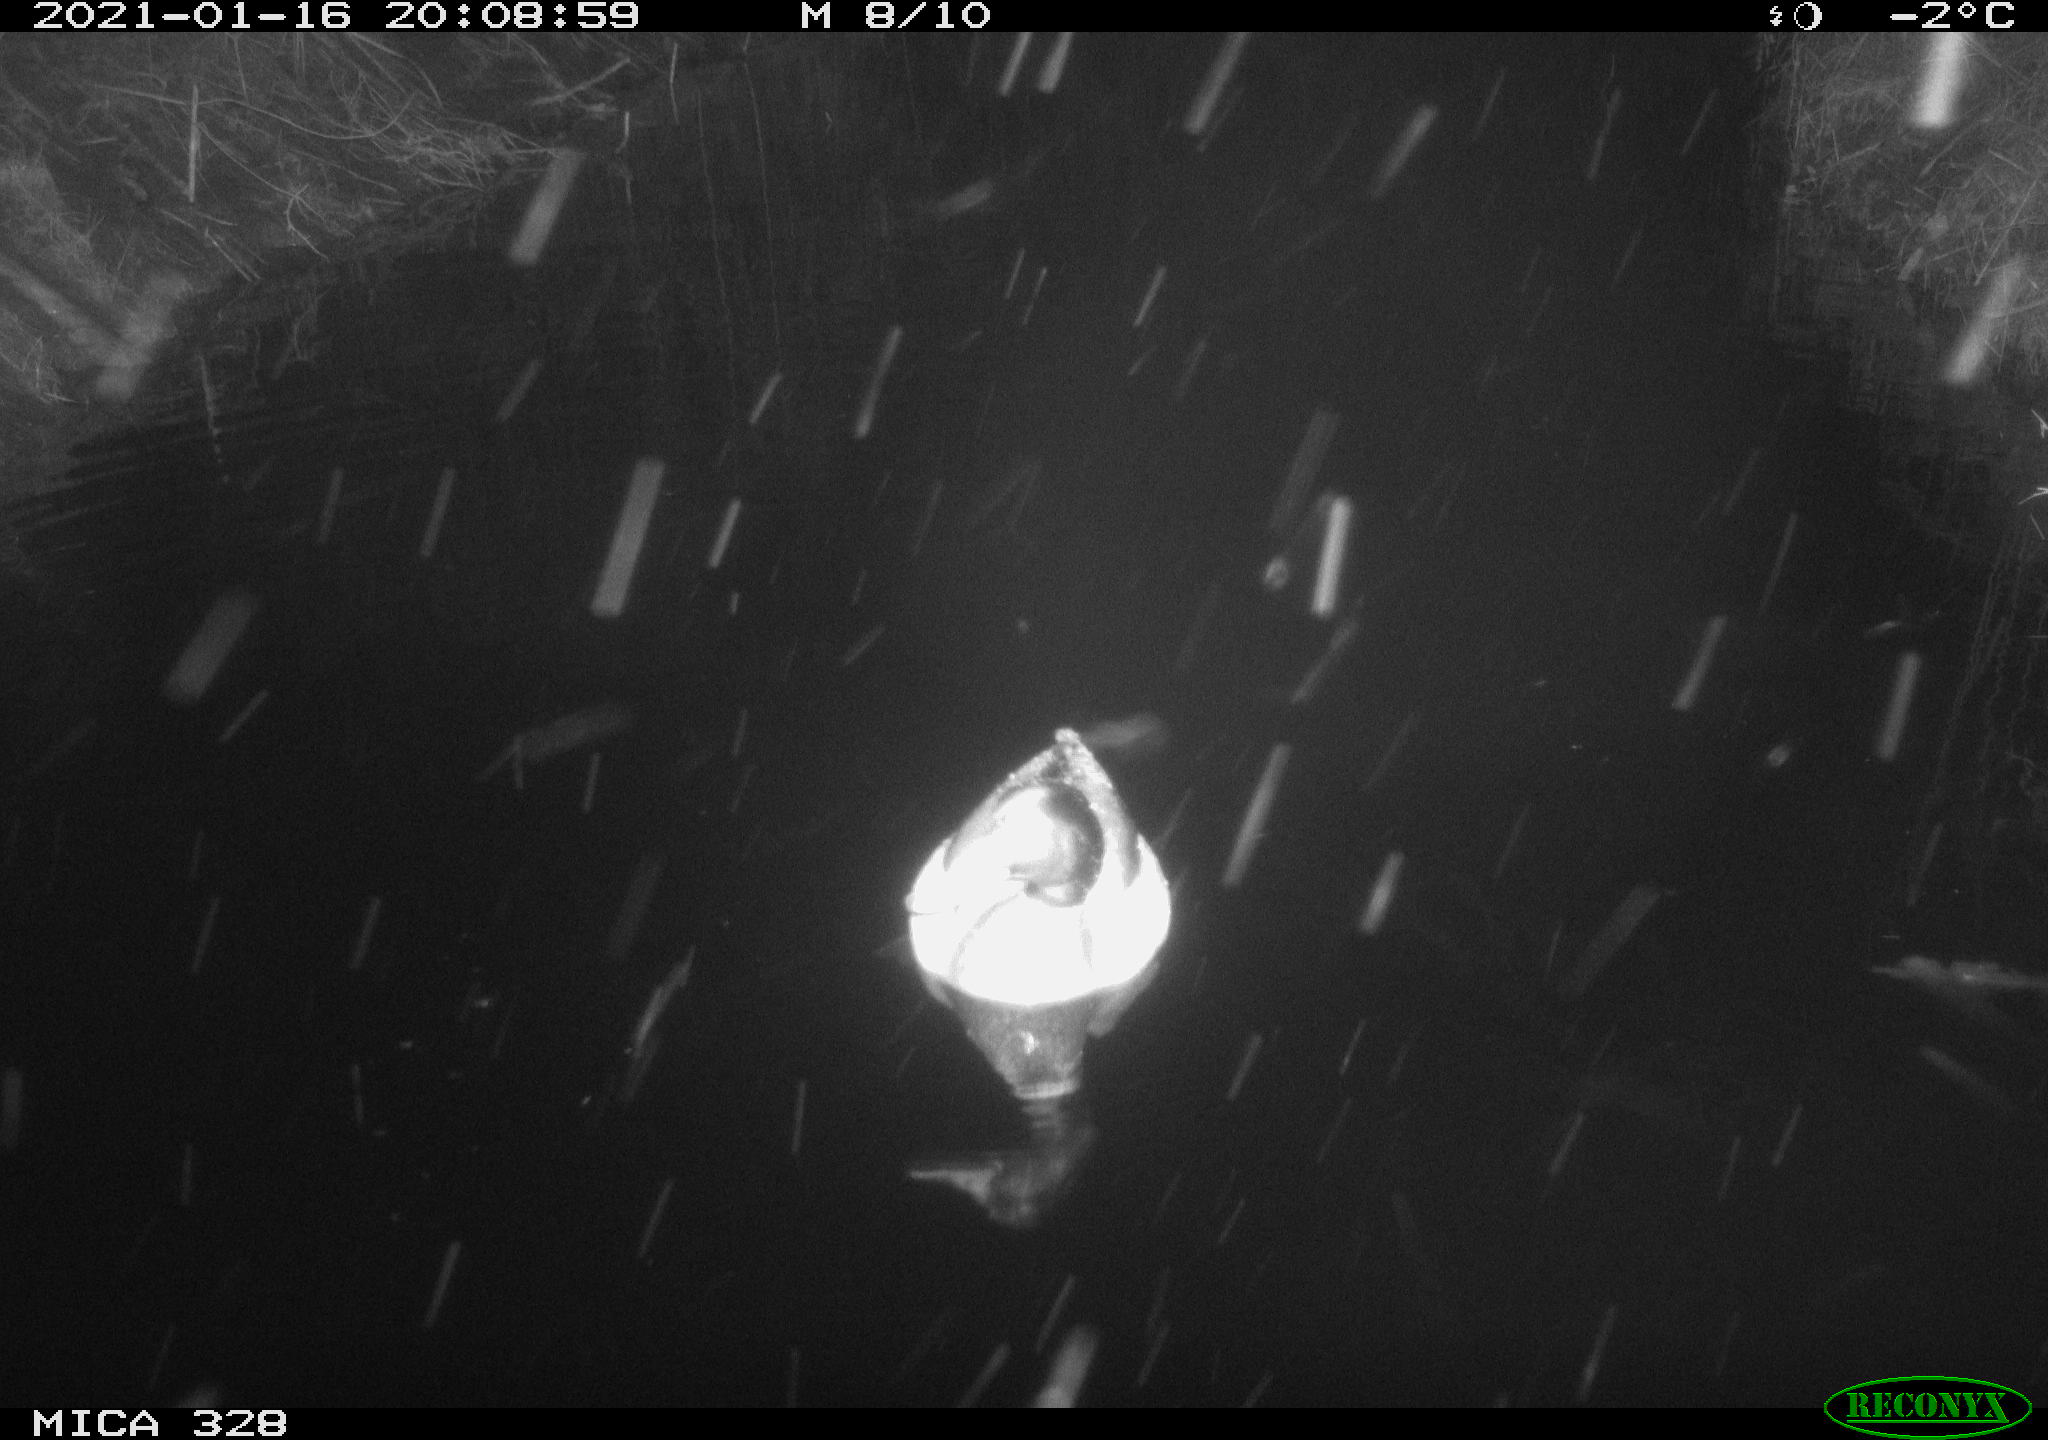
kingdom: Animalia
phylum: Chordata
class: Aves
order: Anseriformes
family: Anatidae
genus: Anas
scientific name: Anas platyrhynchos
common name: Mallard
